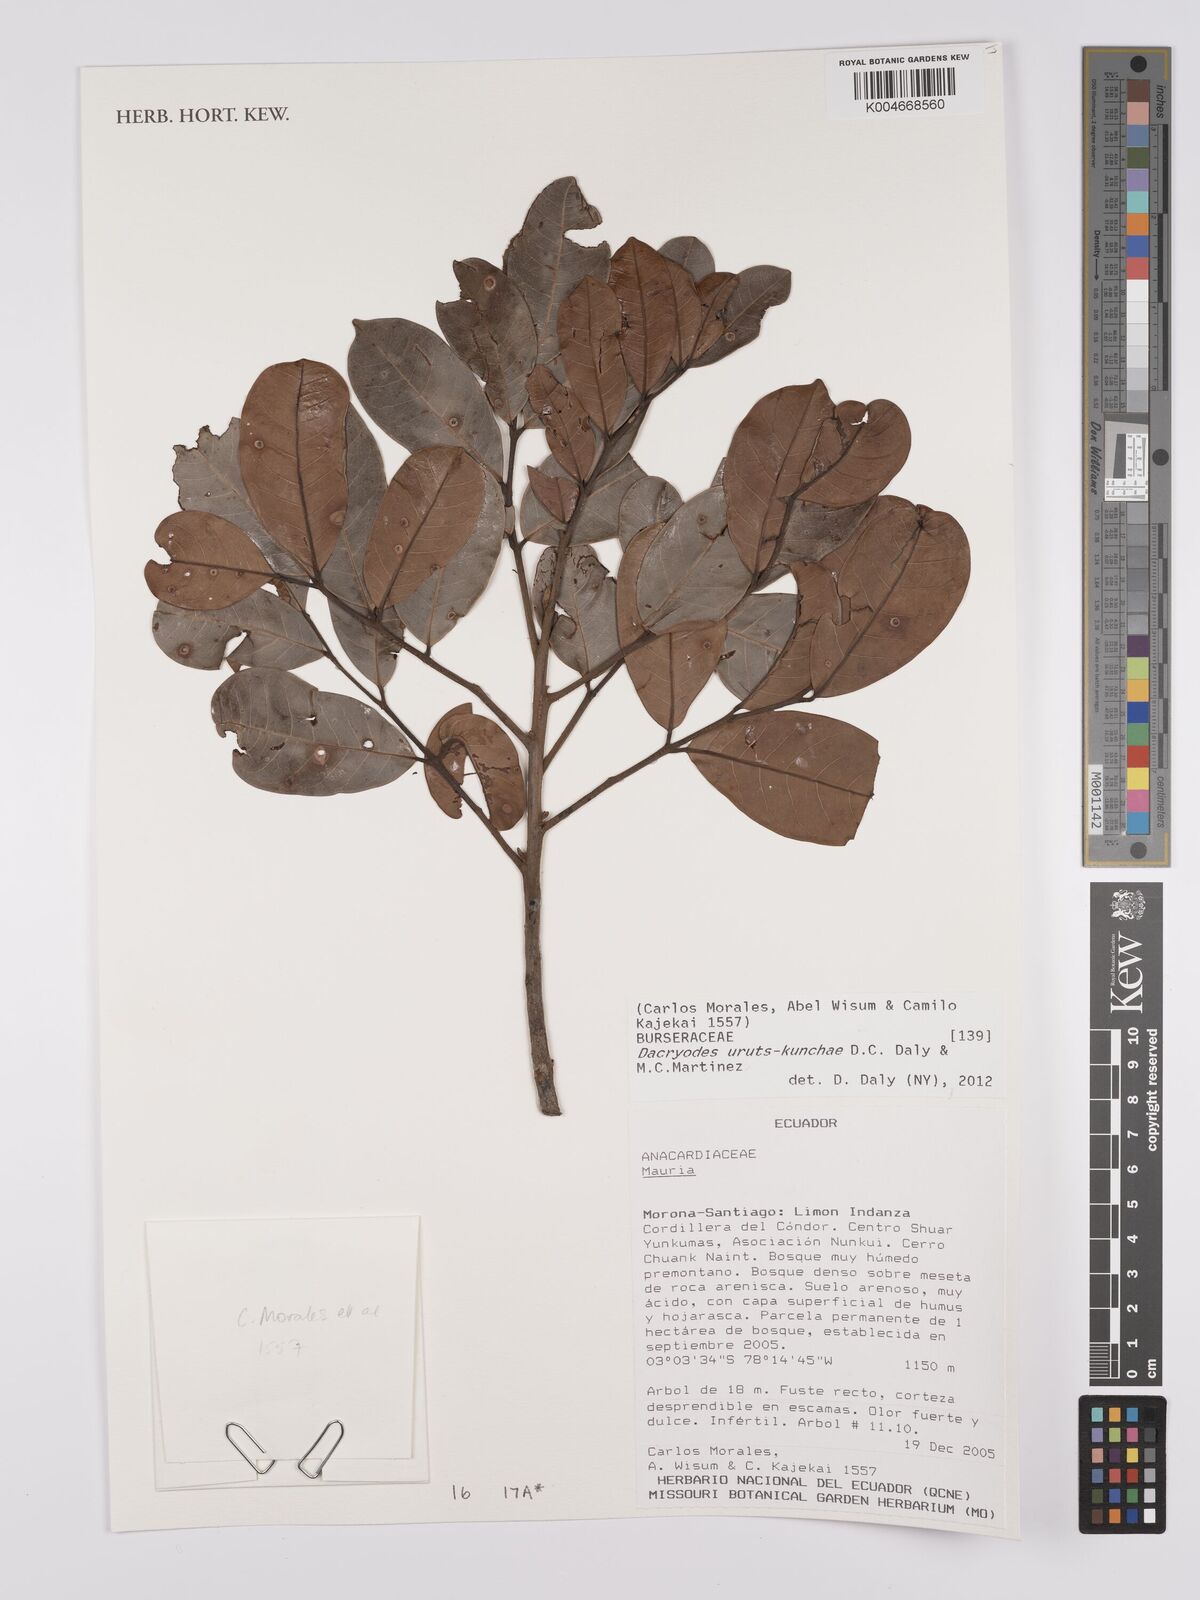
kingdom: Plantae
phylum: Tracheophyta
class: Magnoliopsida
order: Sapindales
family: Burseraceae
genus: Dacryodes
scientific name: Dacryodes uruts-kunchae
